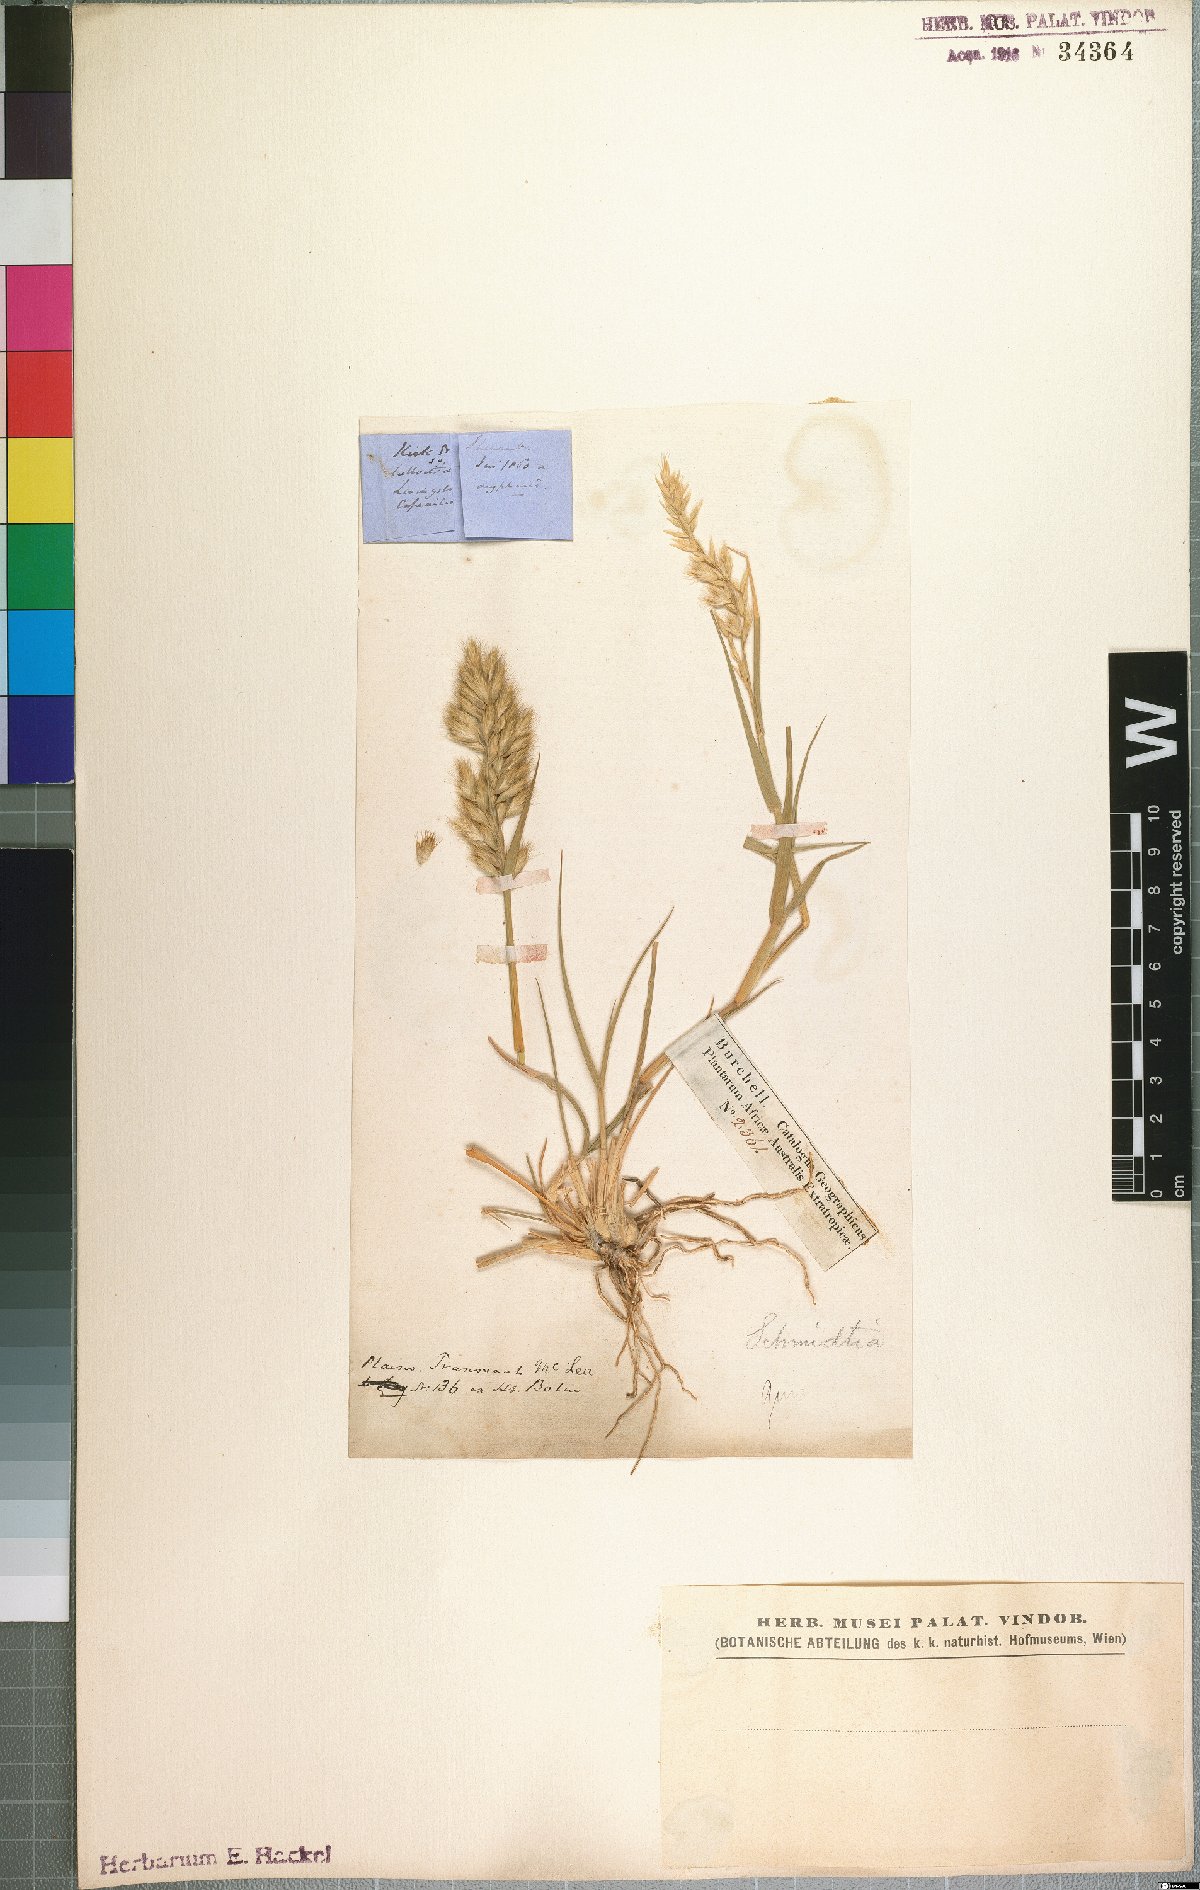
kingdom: Plantae
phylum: Tracheophyta
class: Liliopsida
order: Poales
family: Poaceae
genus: Schmidtia
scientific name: Schmidtia pappophoroides
